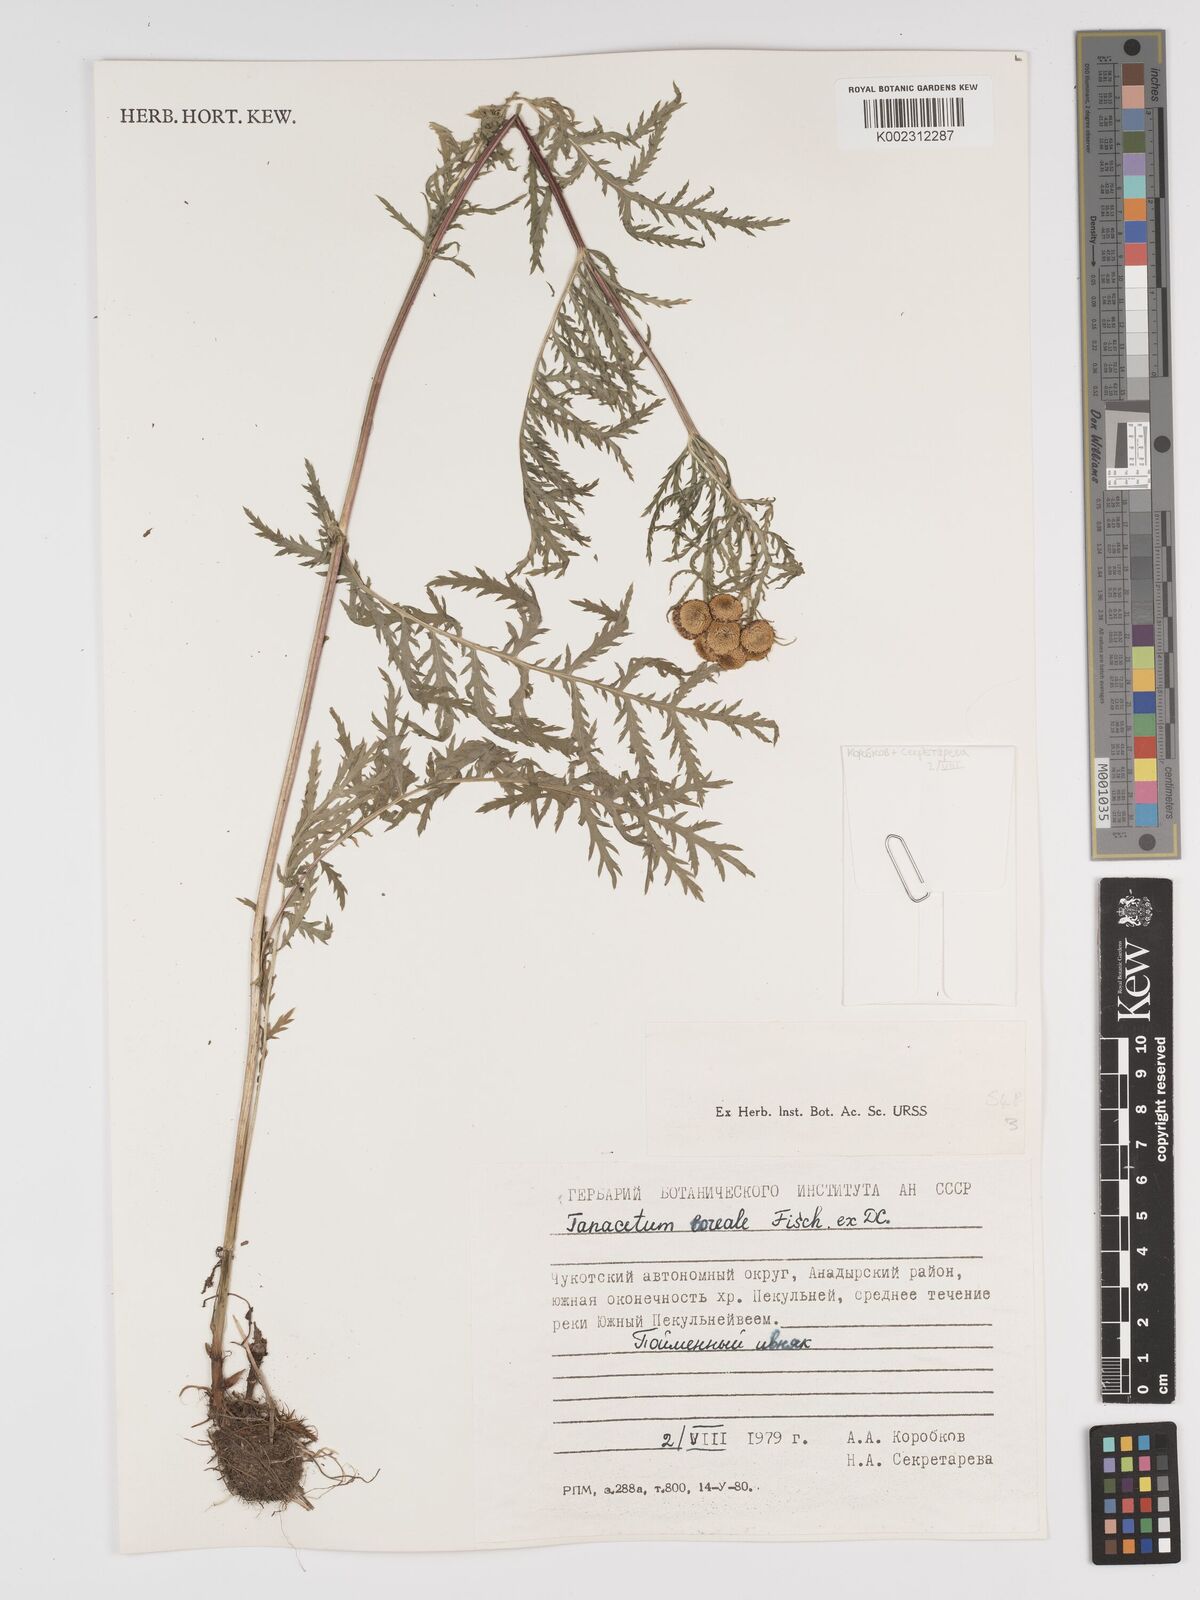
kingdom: Plantae
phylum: Tracheophyta
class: Magnoliopsida
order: Asterales
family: Asteraceae
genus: Tanacetum
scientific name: Tanacetum vulgare
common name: Common tansy
